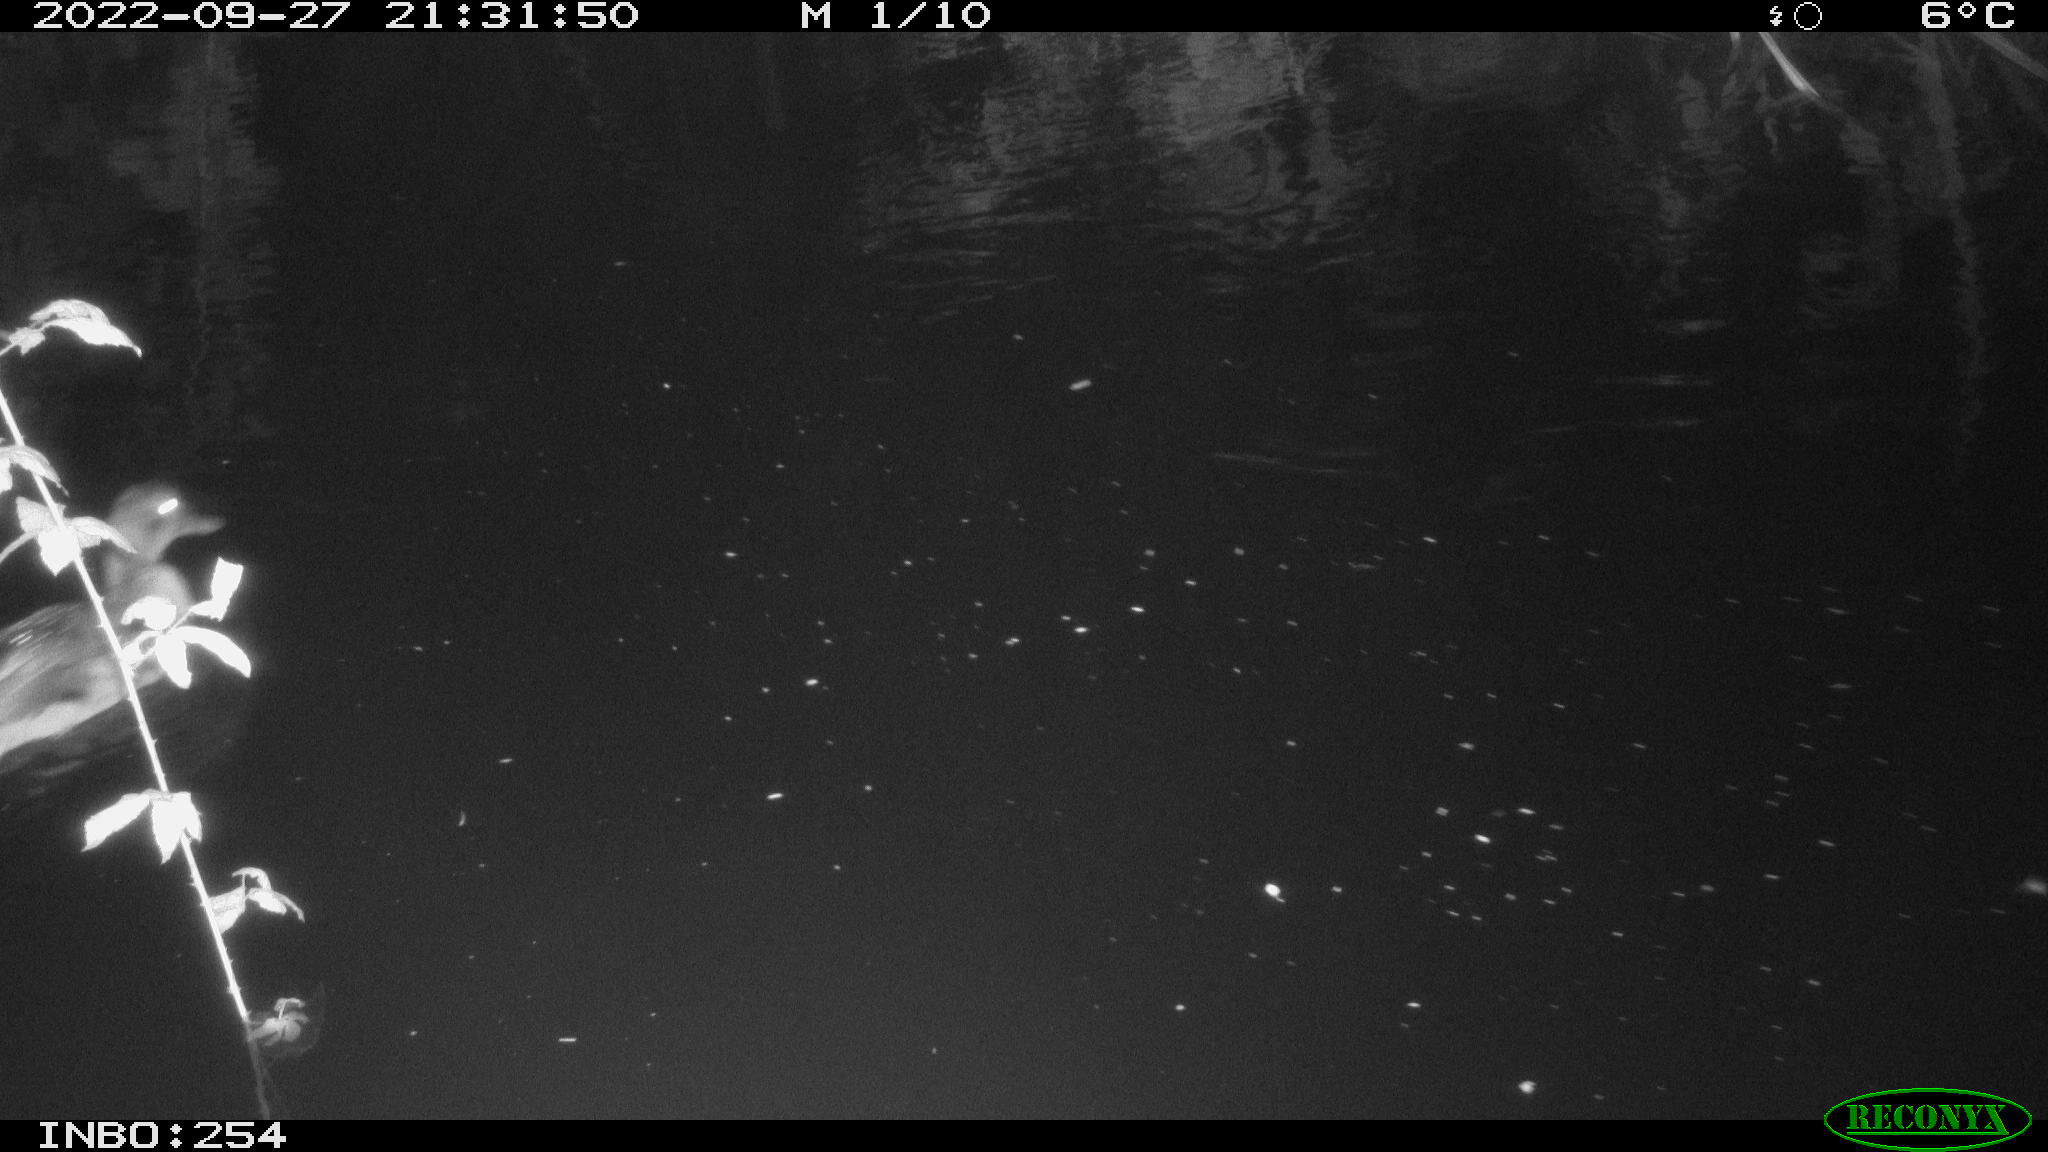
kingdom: Animalia
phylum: Chordata
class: Aves
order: Anseriformes
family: Anatidae
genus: Anas
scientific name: Anas
